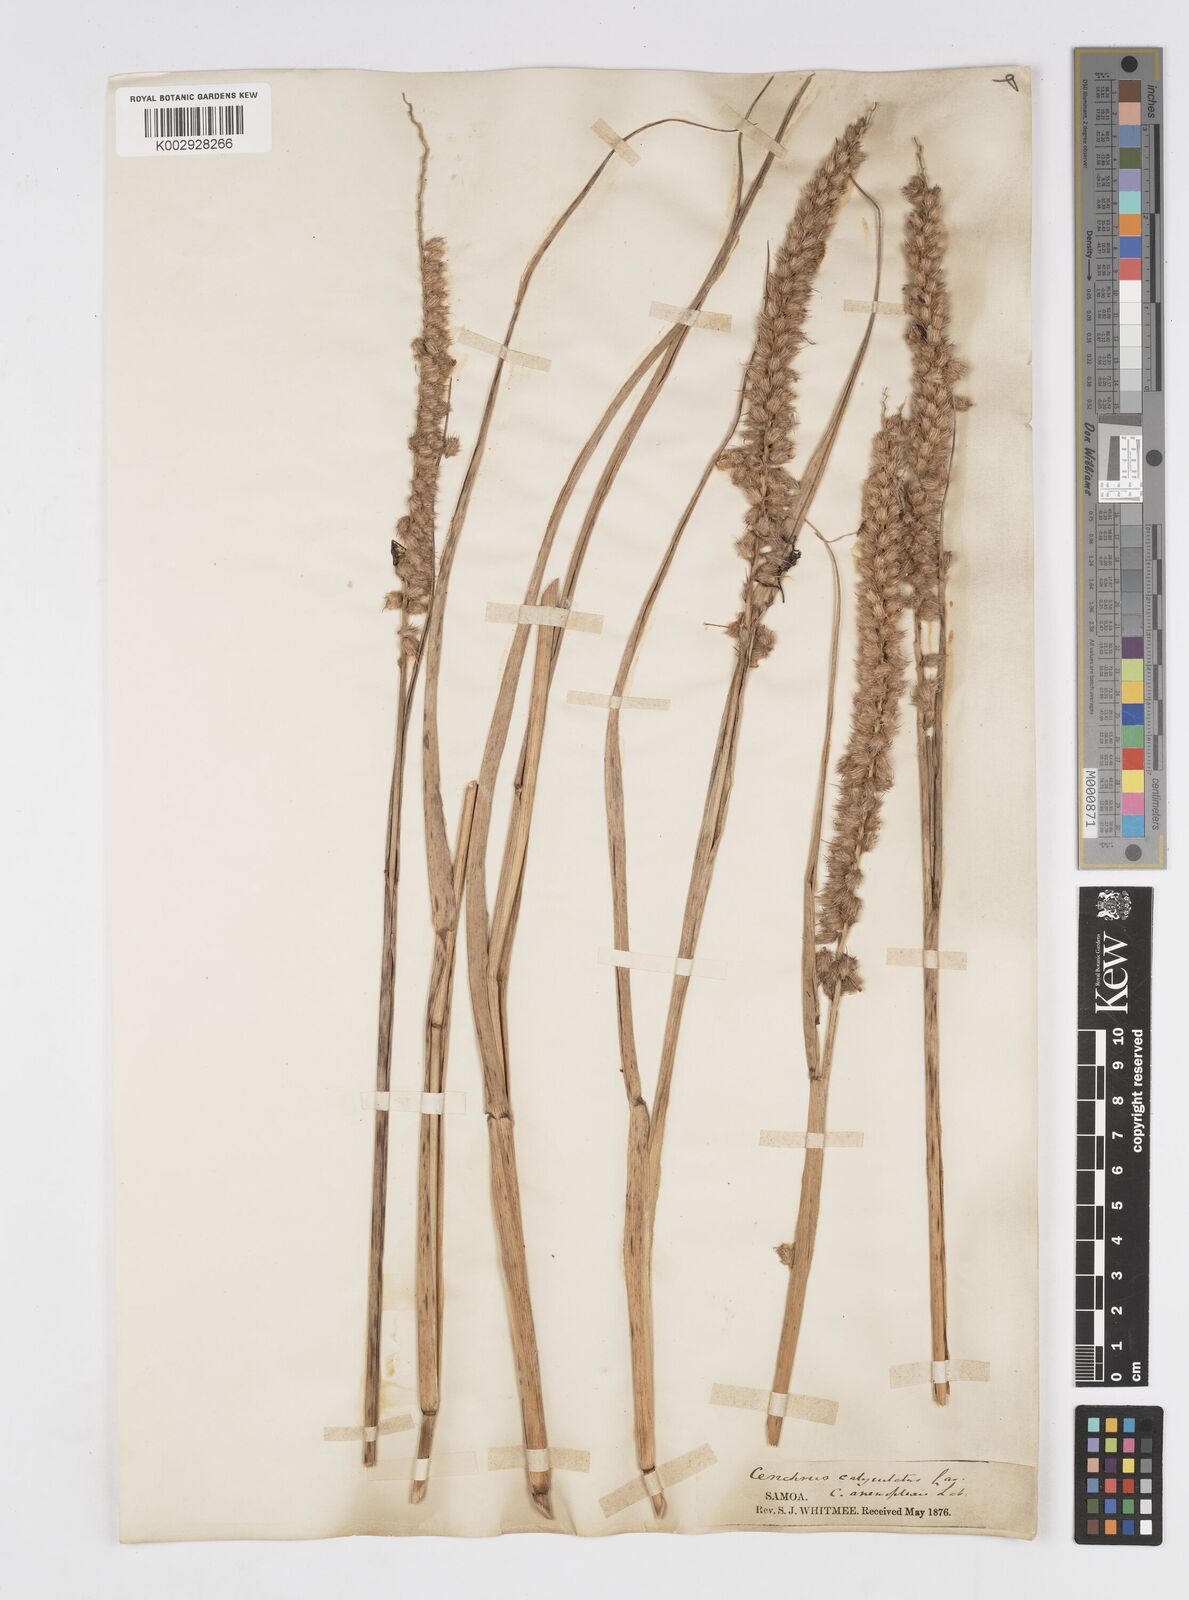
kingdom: Plantae
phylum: Tracheophyta
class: Liliopsida
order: Poales
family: Poaceae
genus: Cenchrus
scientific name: Cenchrus caliculatus
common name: Large bur grass
